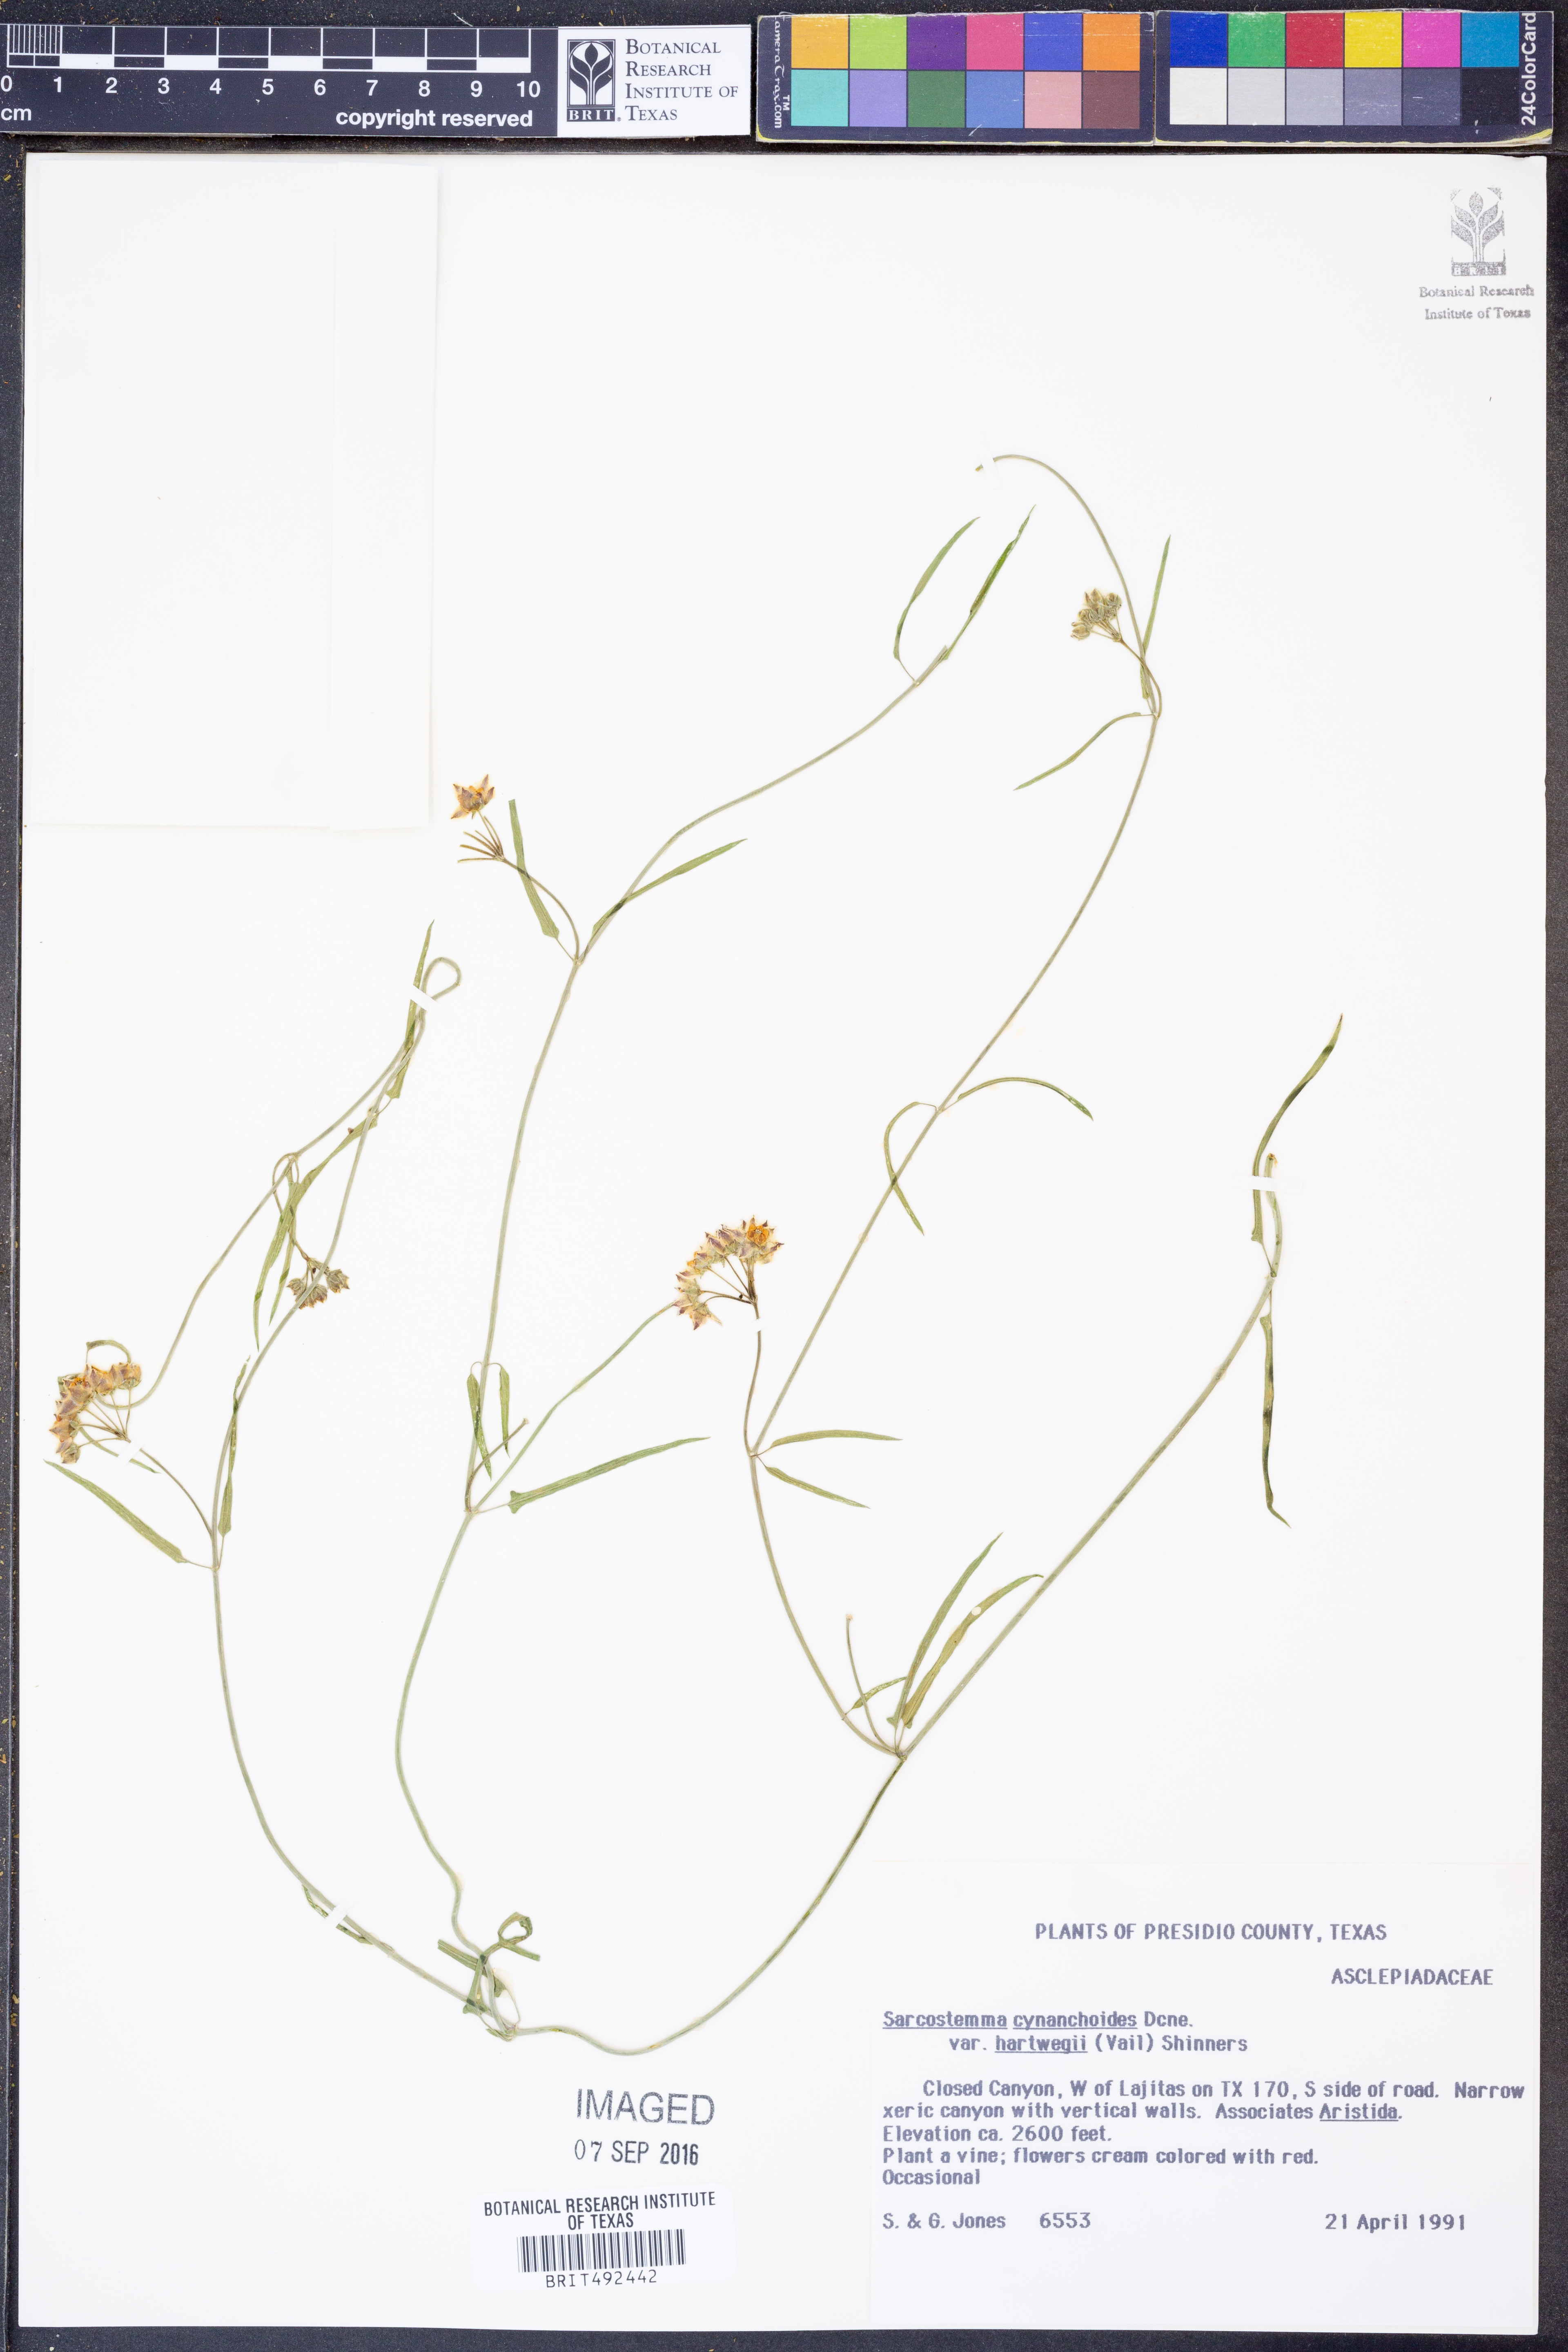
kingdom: Plantae
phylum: Tracheophyta
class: Magnoliopsida
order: Gentianales
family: Apocynaceae
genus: Funastrum
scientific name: Funastrum heterophyllum
